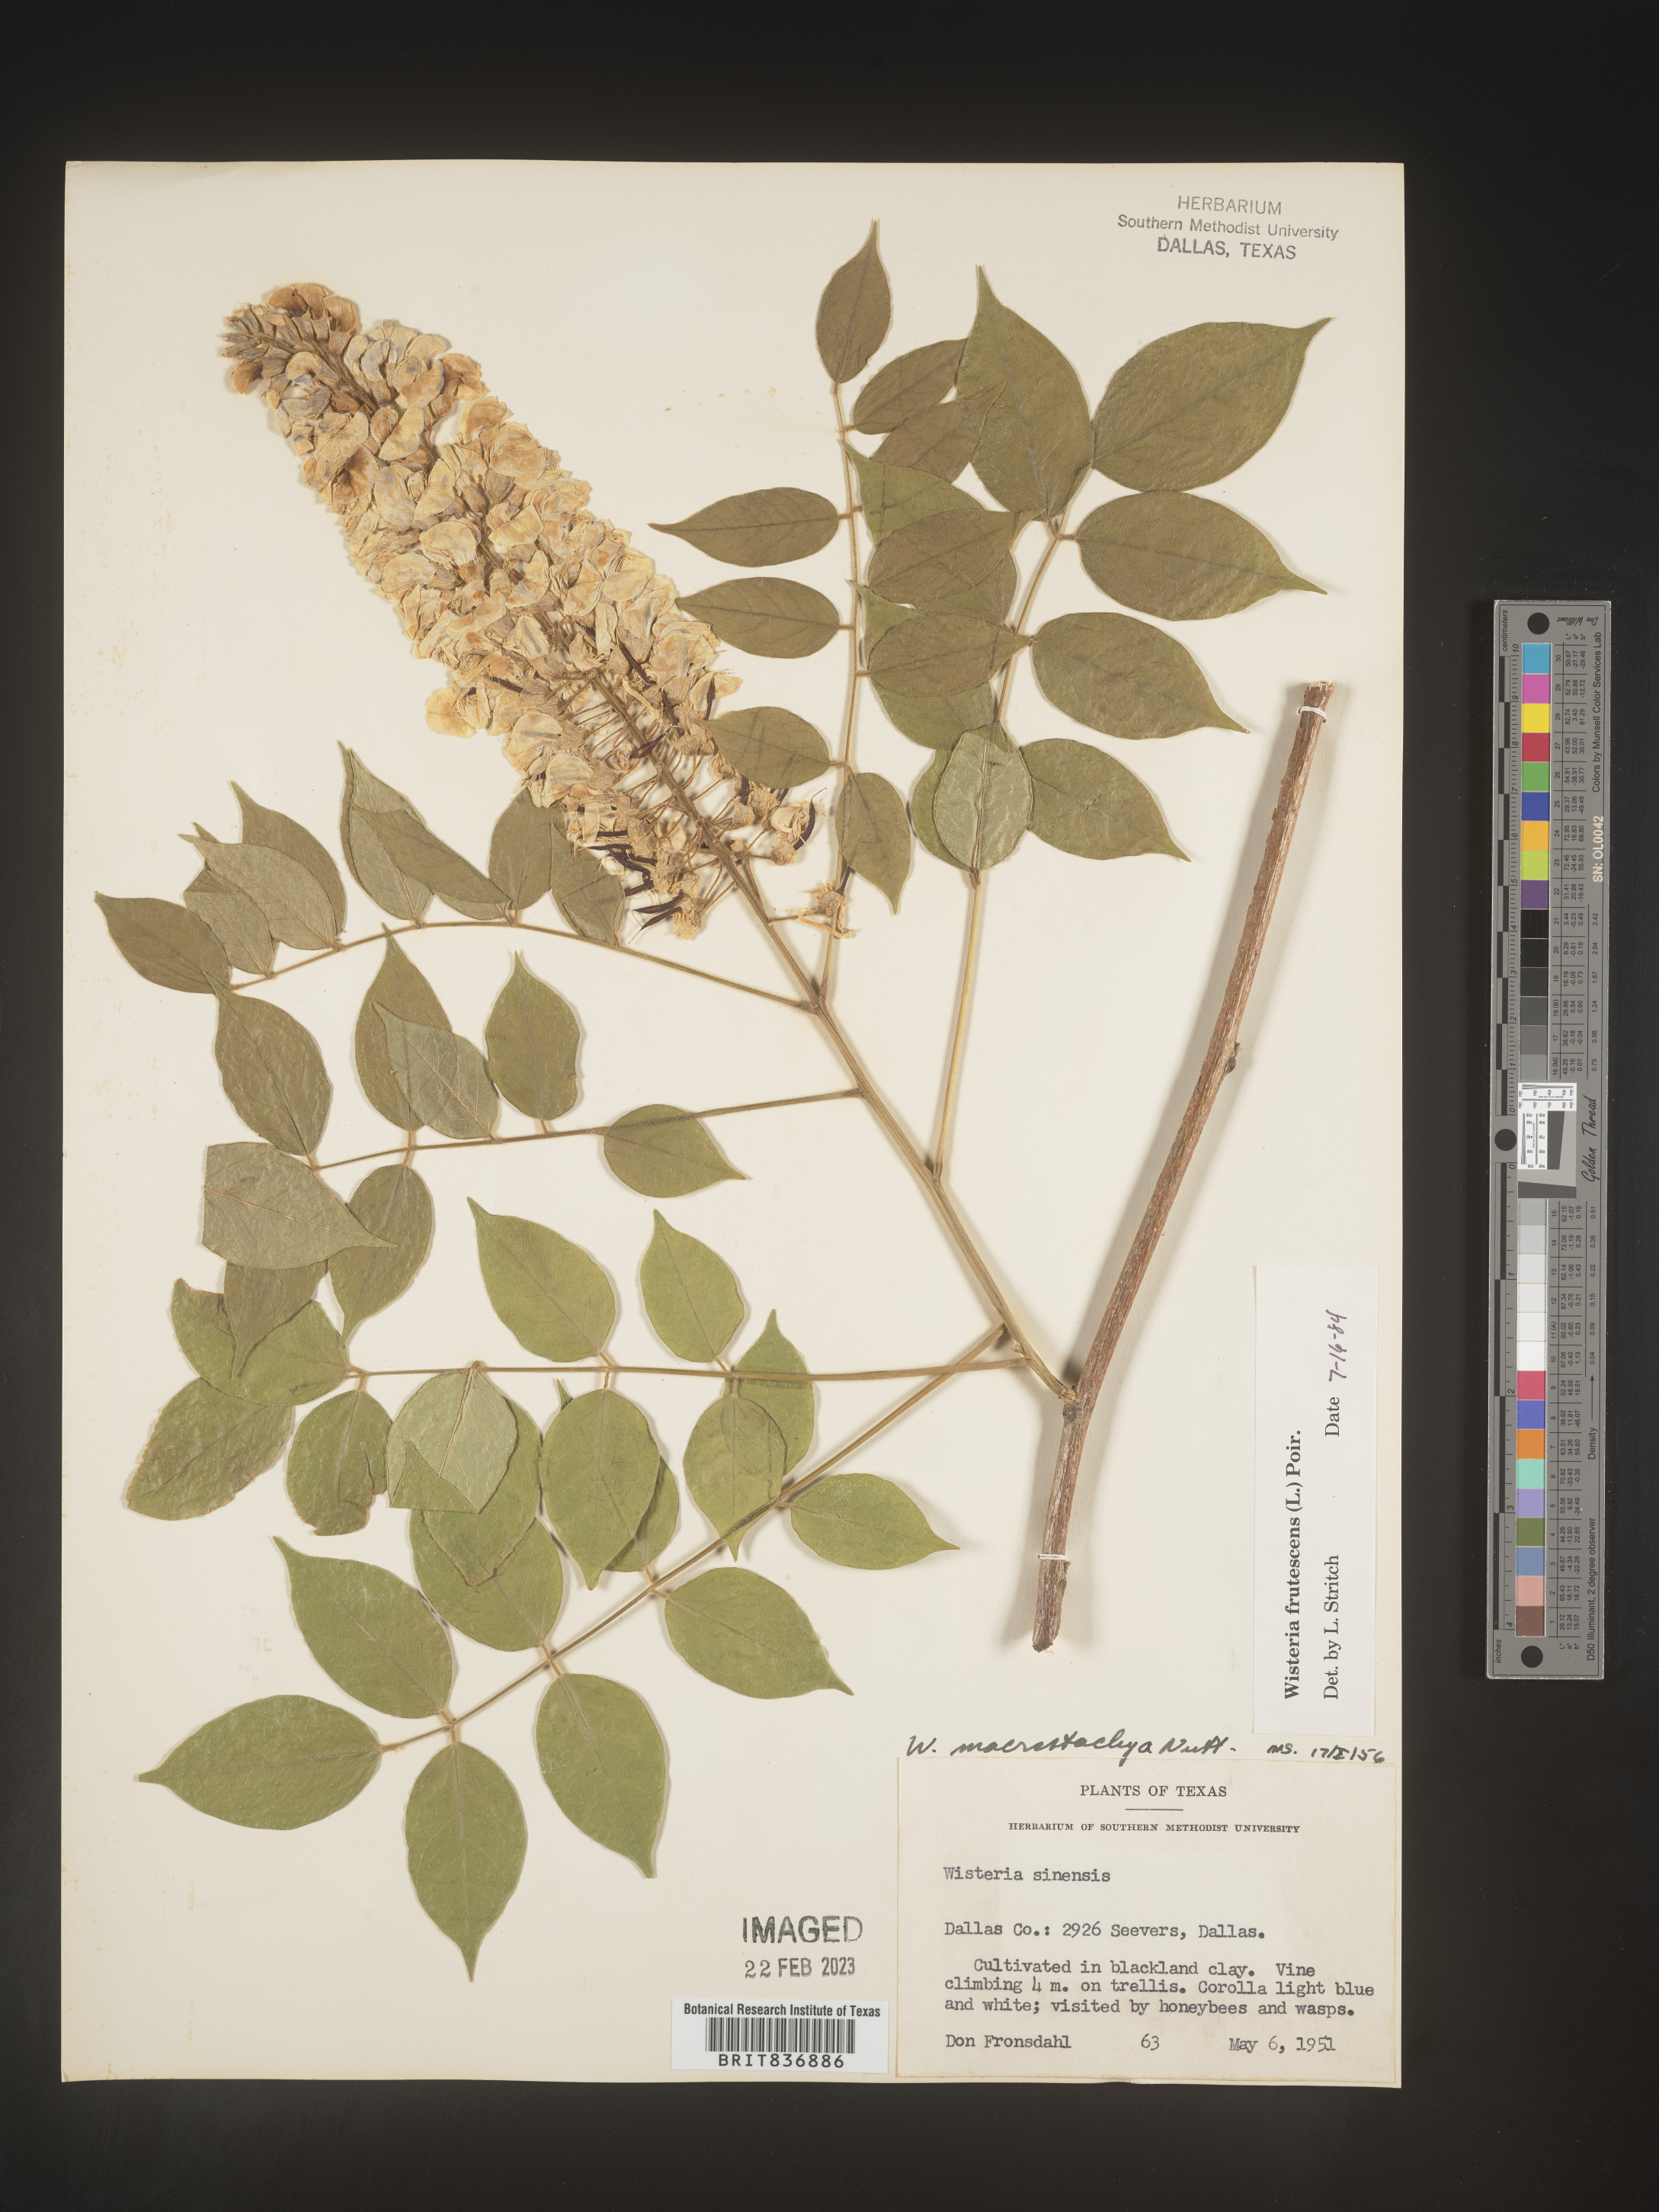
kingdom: Plantae
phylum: Tracheophyta
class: Magnoliopsida
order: Fabales
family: Fabaceae
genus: Wisteria
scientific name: Wisteria
